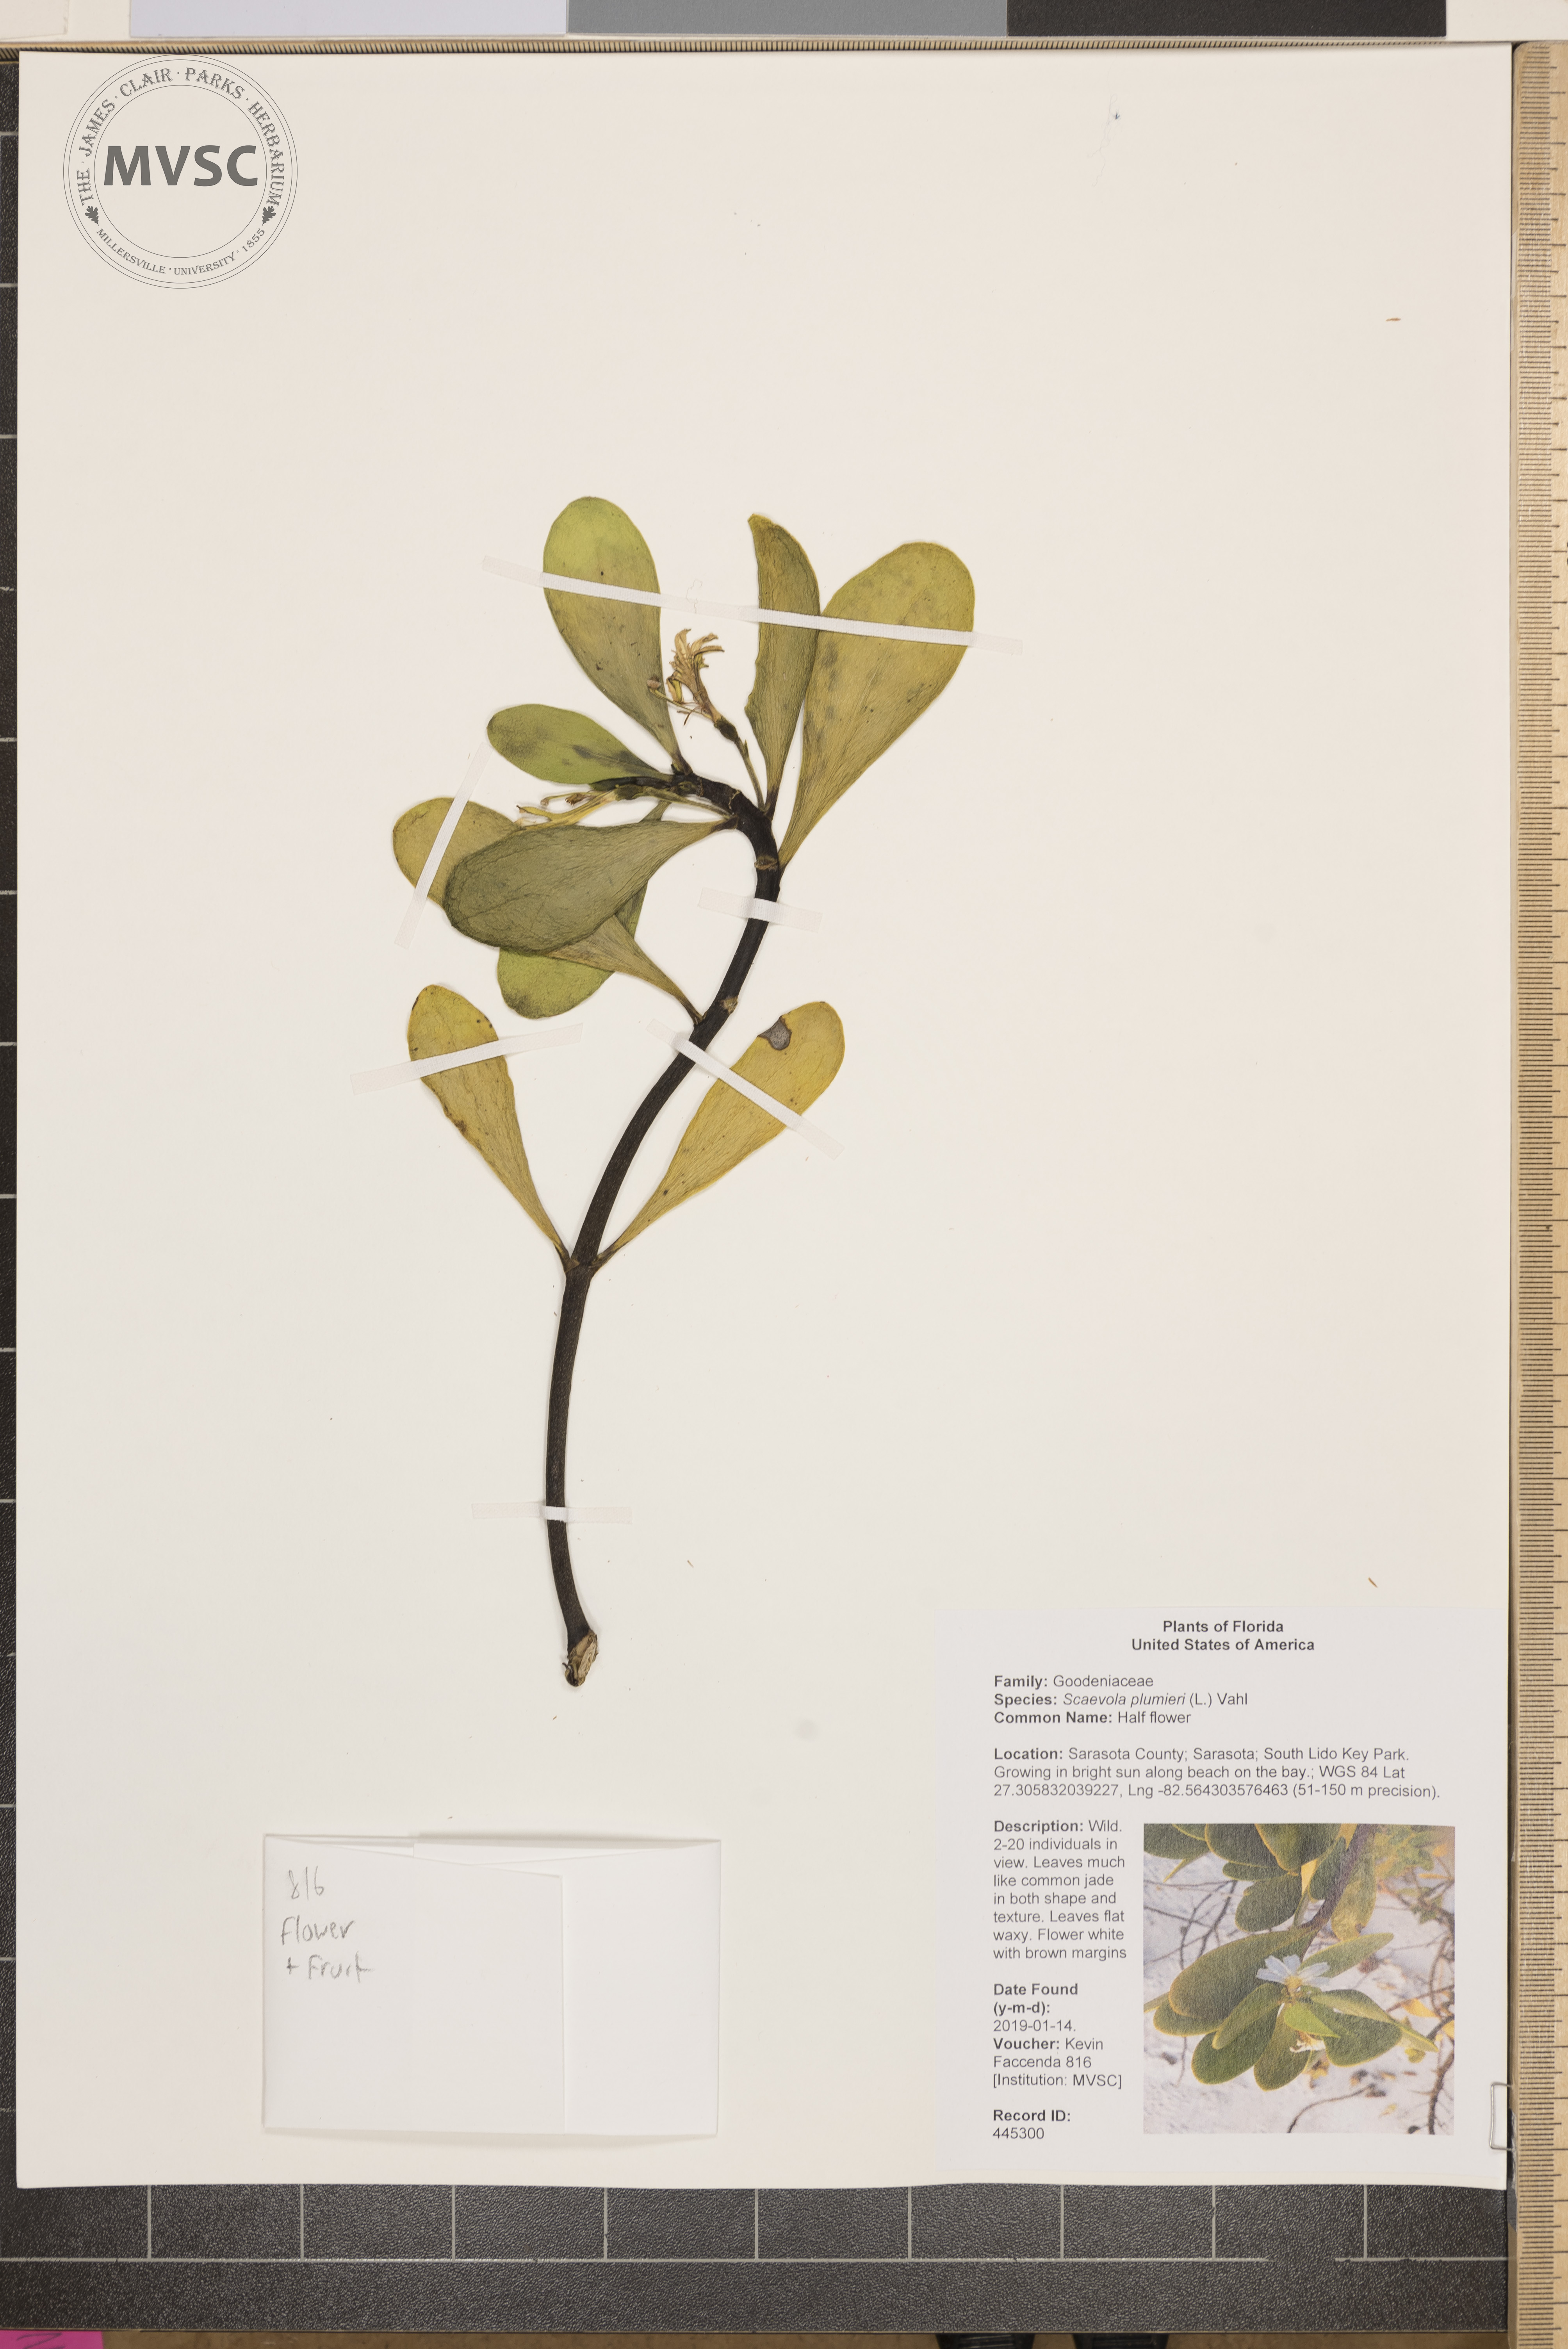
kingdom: Plantae
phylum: Tracheophyta
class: Magnoliopsida
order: Asterales
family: Goodeniaceae
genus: Scaevola
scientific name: Scaevola plumieri
